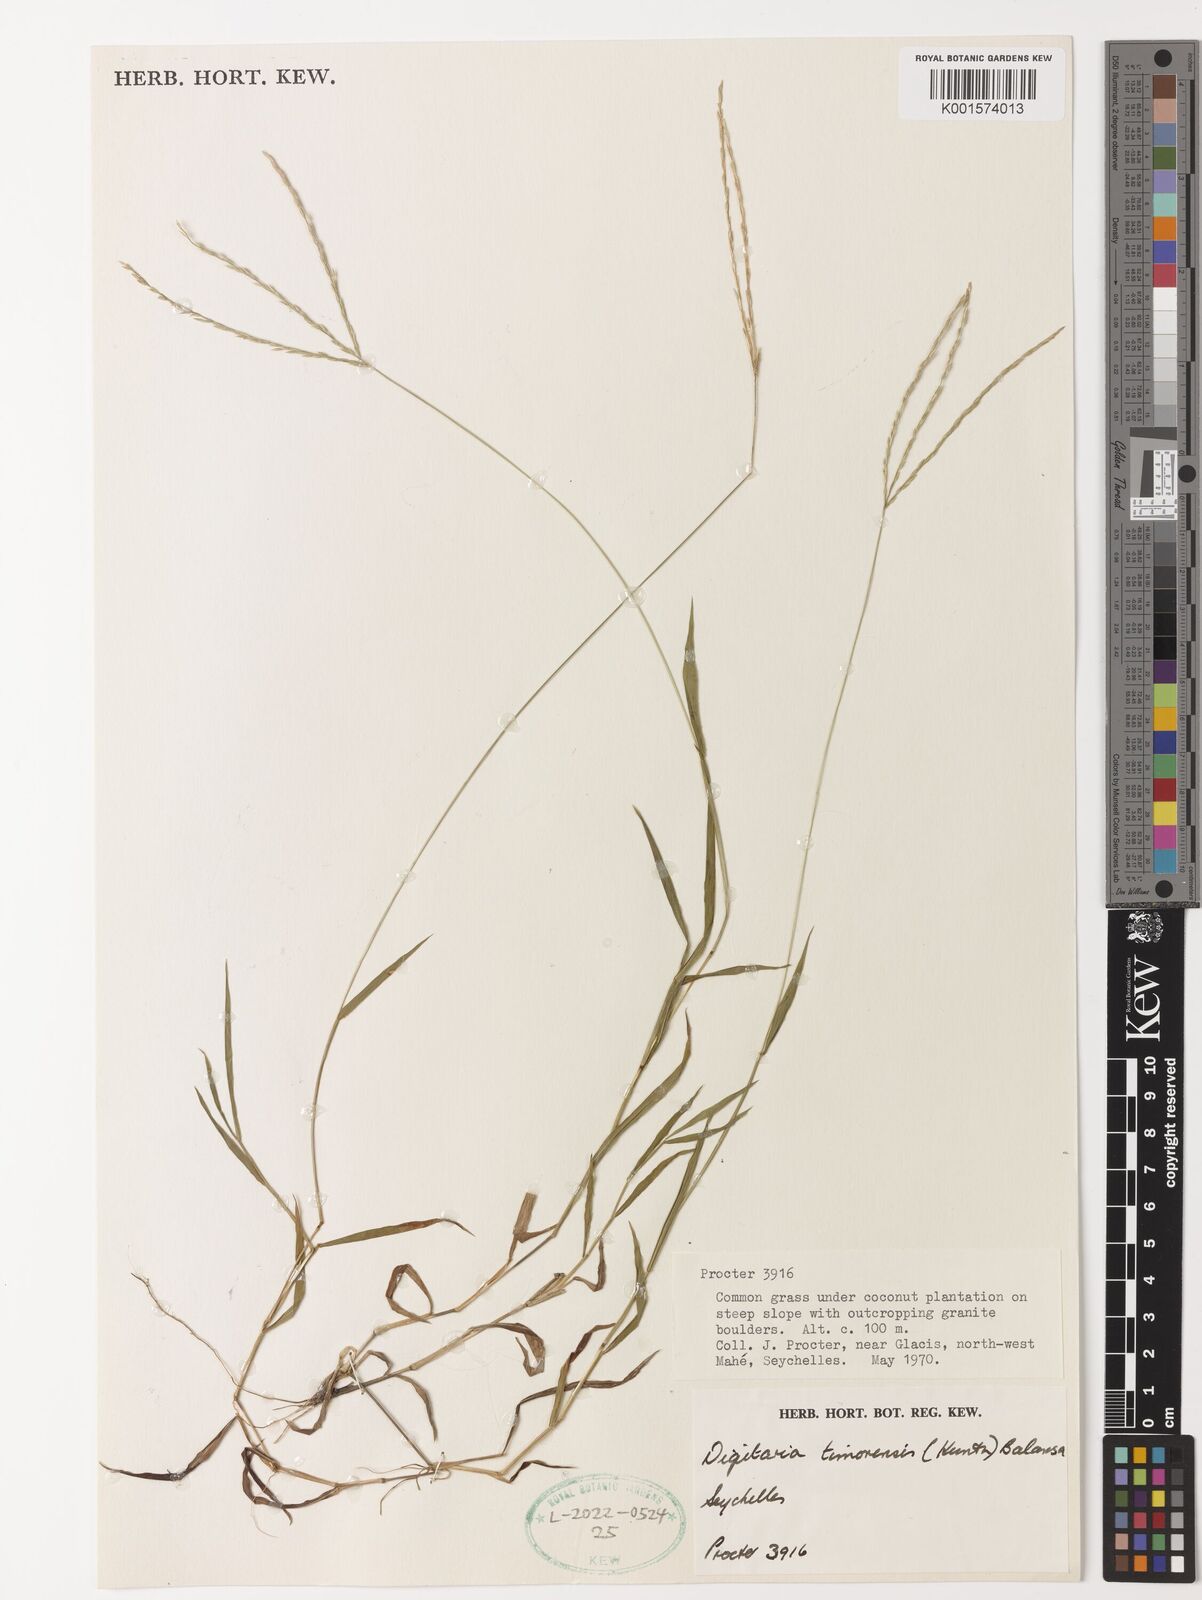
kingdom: Plantae
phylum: Tracheophyta
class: Liliopsida
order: Poales
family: Poaceae
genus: Digitaria
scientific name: Digitaria radicosa
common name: Trailing crabgrass
